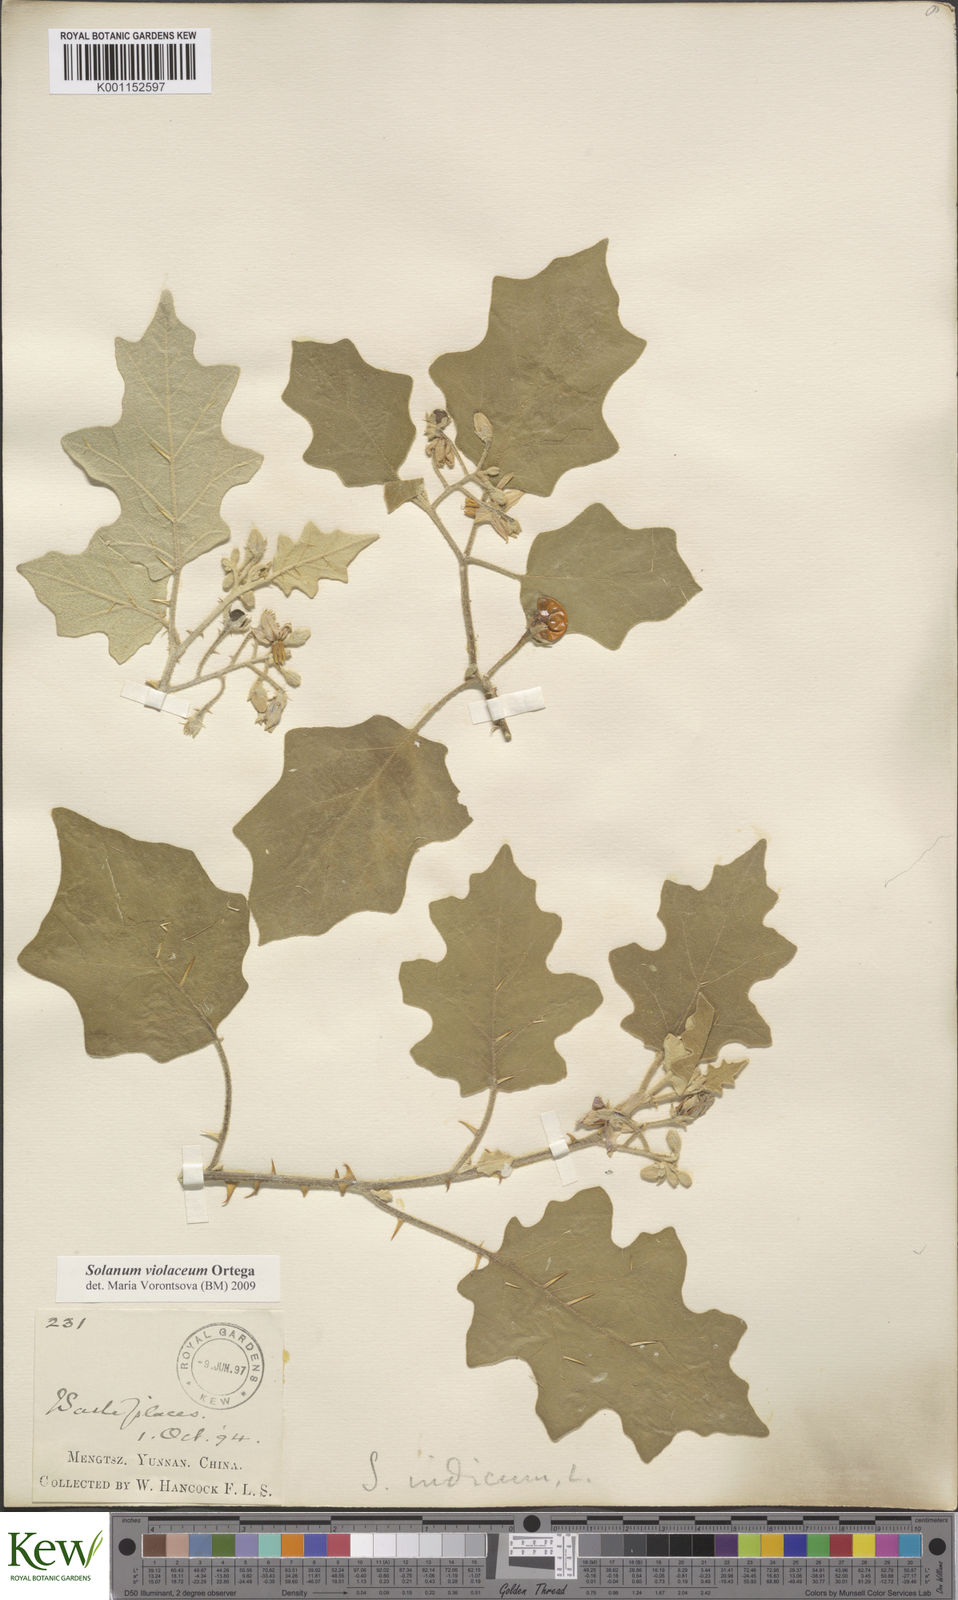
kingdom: Plantae
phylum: Tracheophyta
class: Magnoliopsida
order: Solanales
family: Solanaceae
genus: Solanum
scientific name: Solanum violaceum
